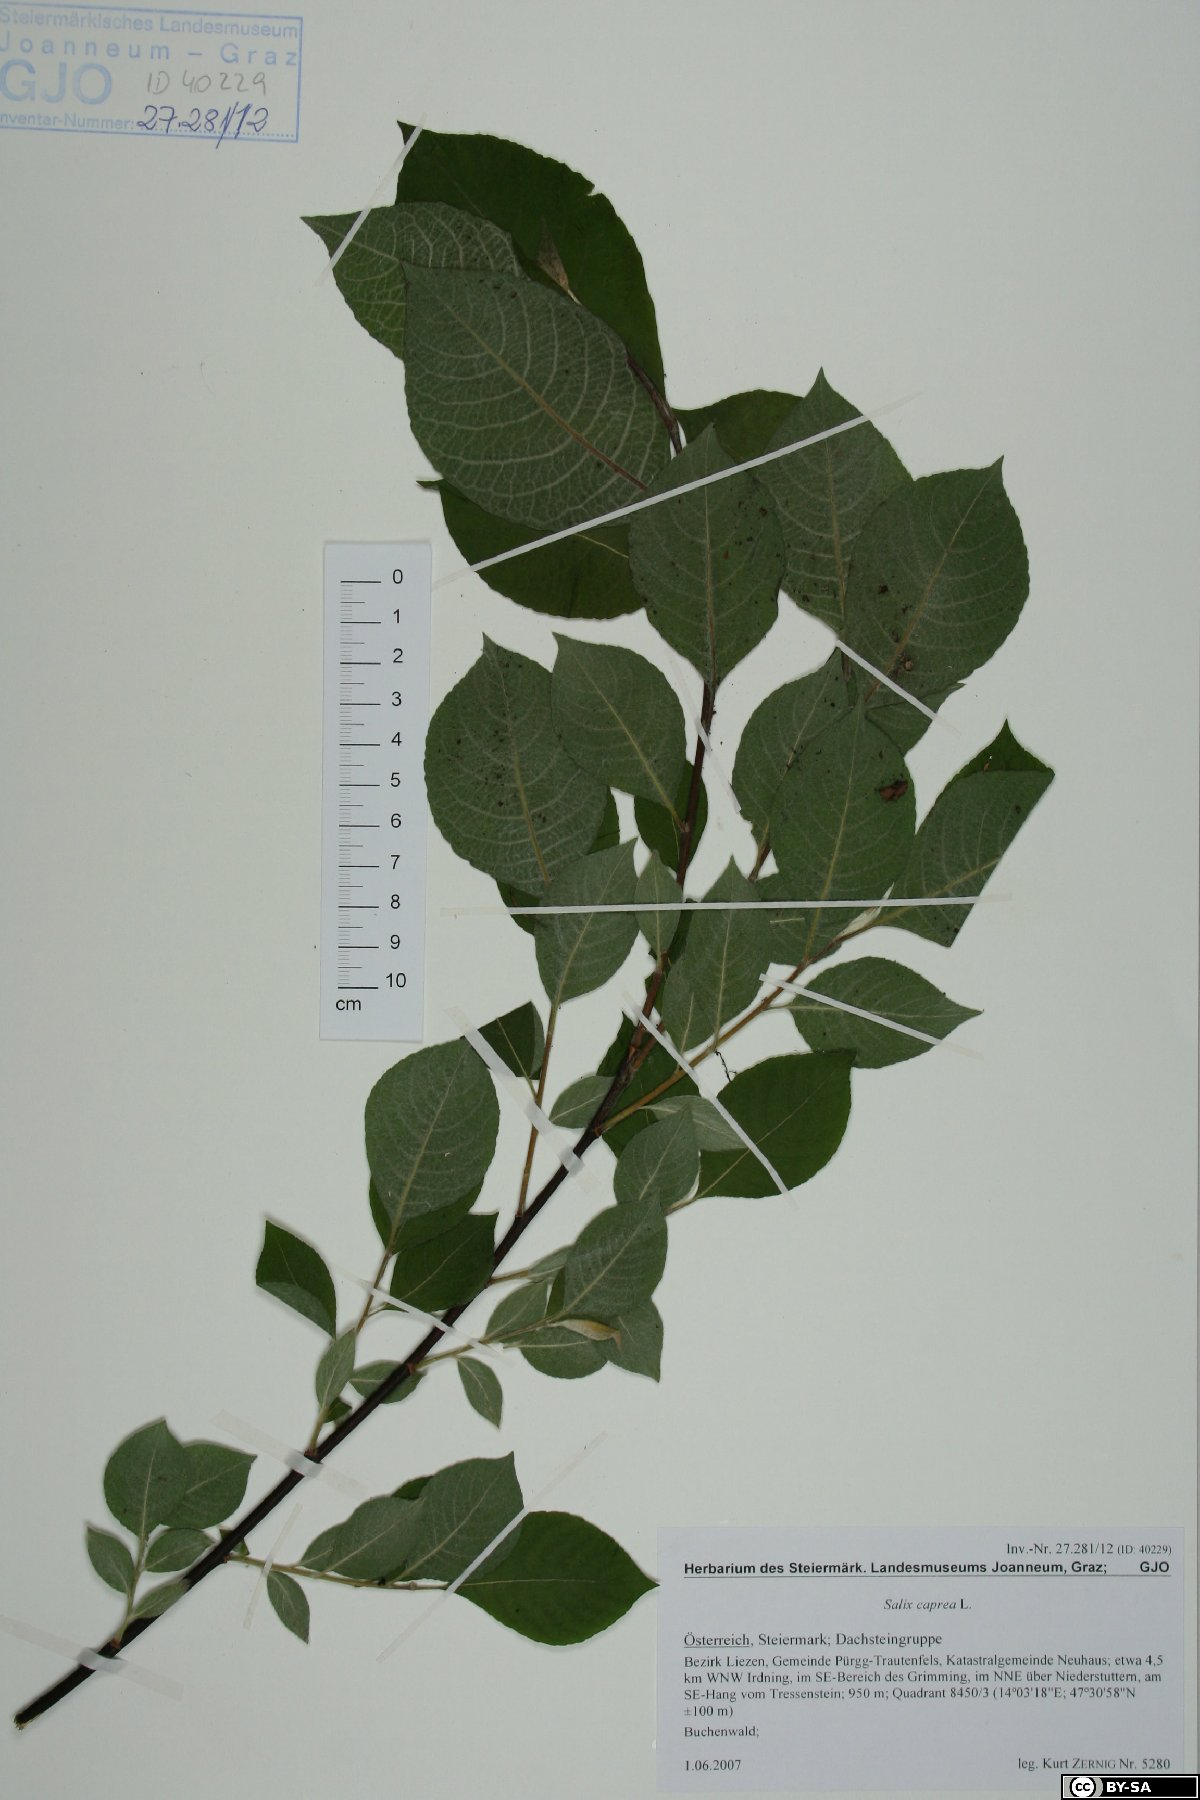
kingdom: Plantae
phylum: Tracheophyta
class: Magnoliopsida
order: Malpighiales
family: Salicaceae
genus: Salix
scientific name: Salix caprea
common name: Goat willow
